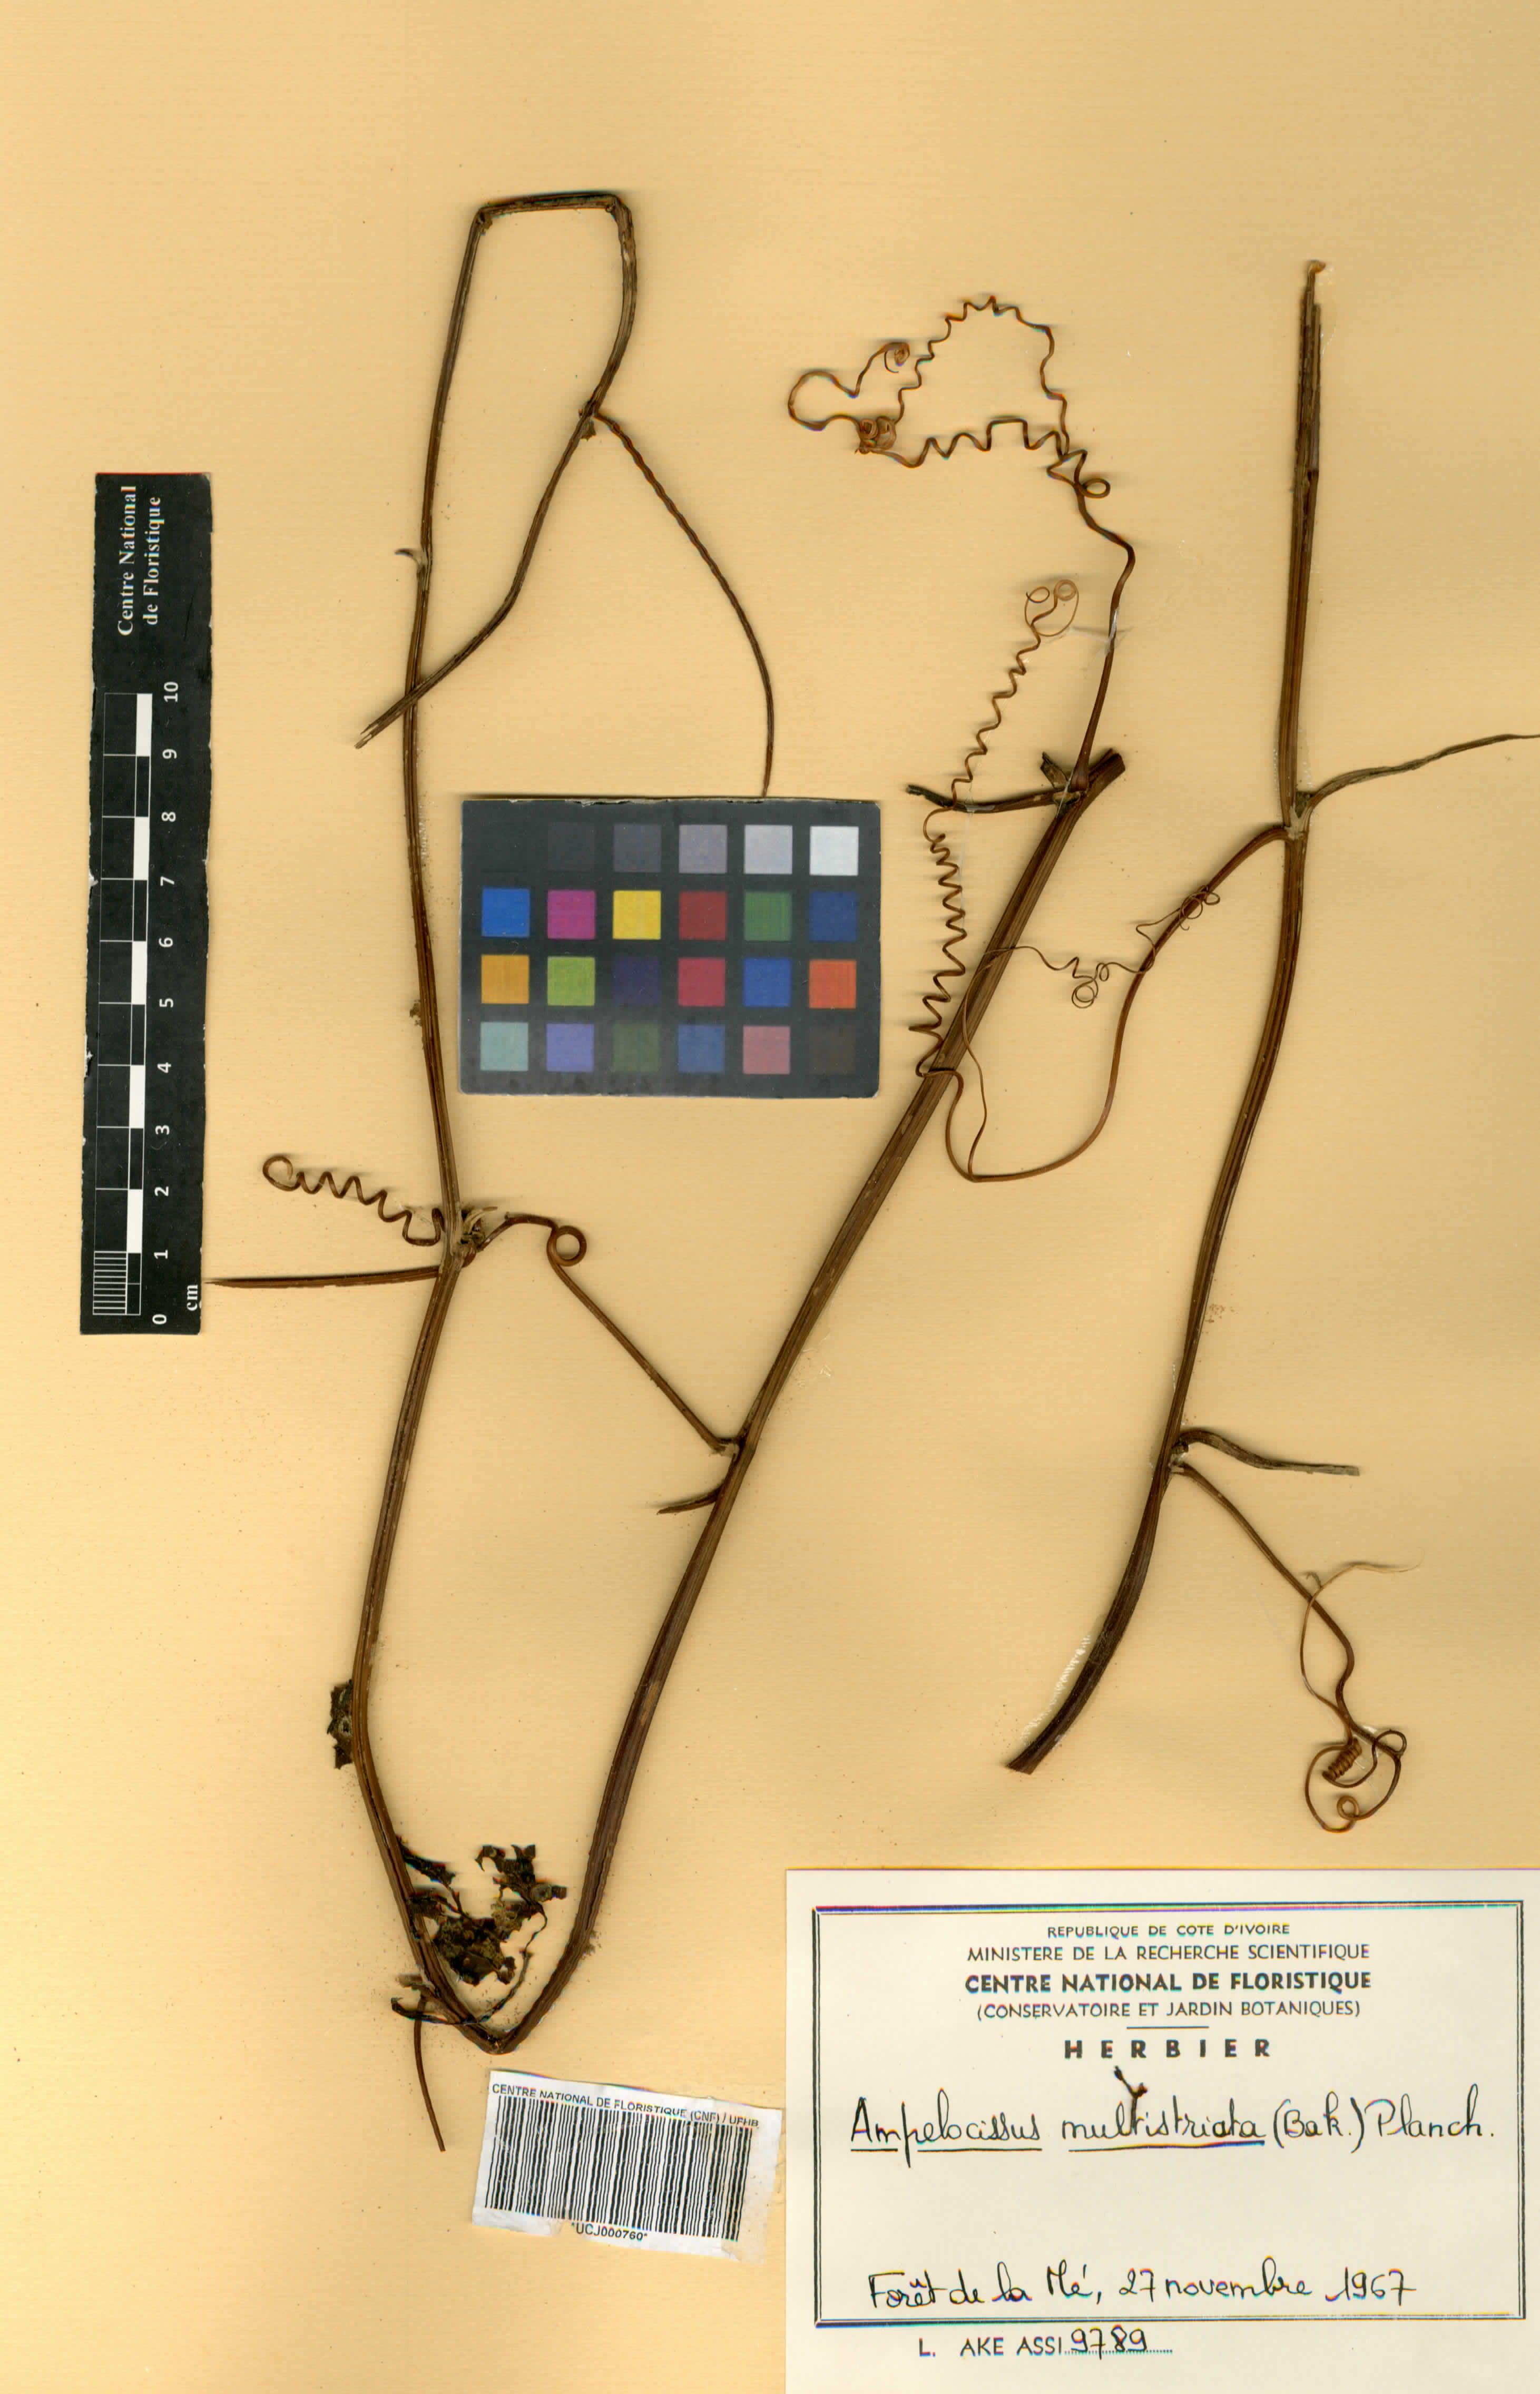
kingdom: Plantae
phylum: Tracheophyta
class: Magnoliopsida
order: Vitales
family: Vitaceae
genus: Ampelocissus
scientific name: Ampelocissus multistriata
